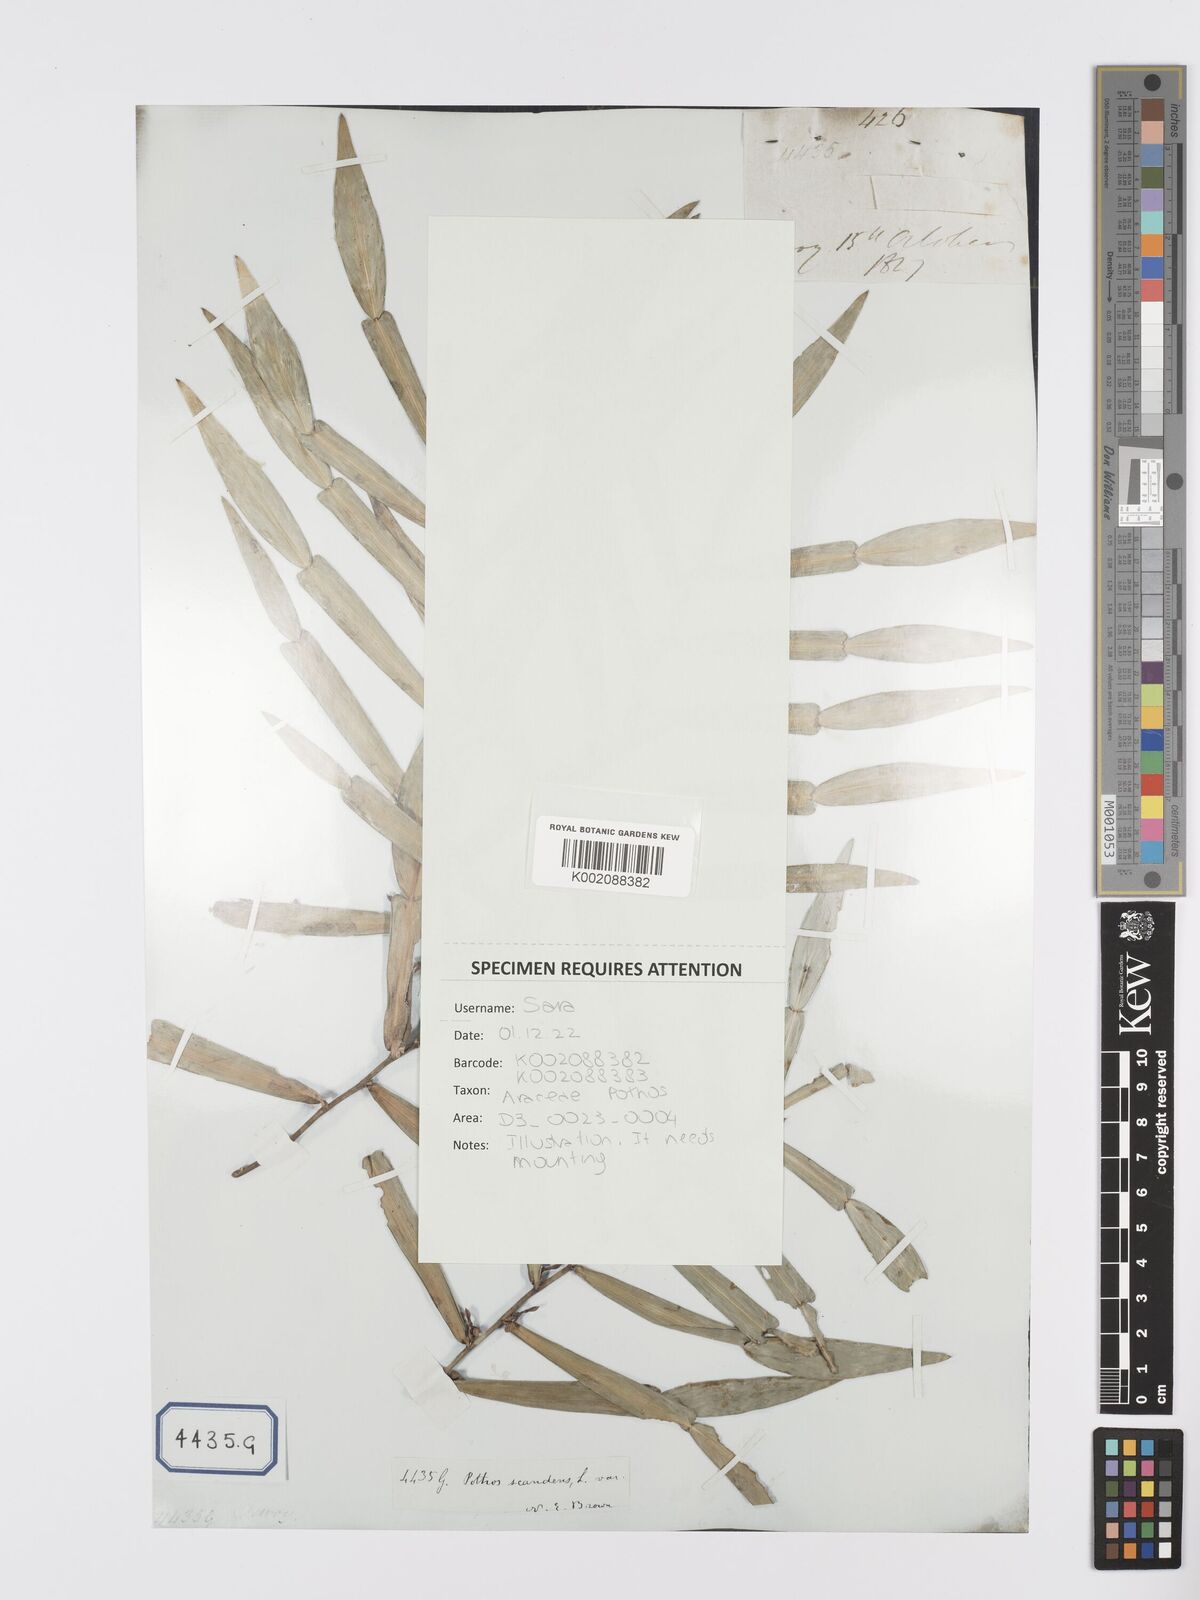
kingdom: Plantae
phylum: Tracheophyta
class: Liliopsida
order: Alismatales
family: Araceae
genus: Pothos
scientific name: Pothos scandens
